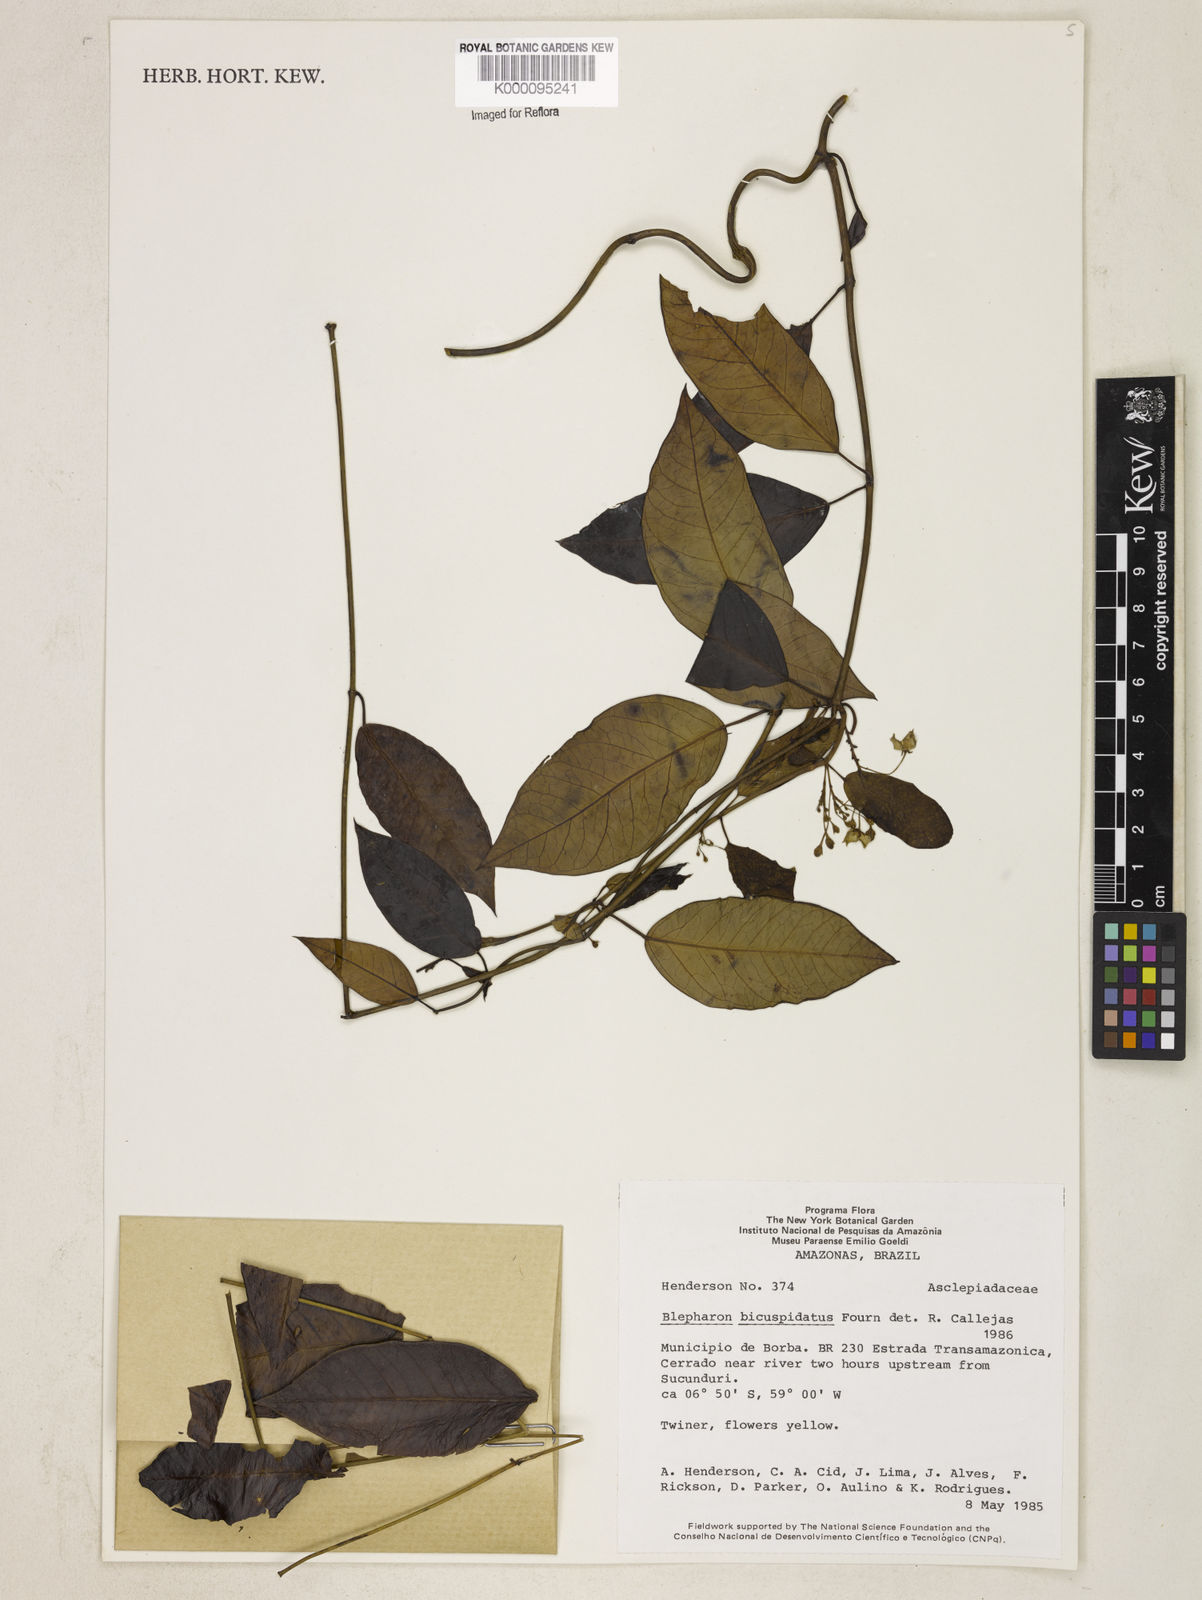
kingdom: Plantae
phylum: Tracheophyta
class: Magnoliopsida
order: Gentianales
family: Apocynaceae
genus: Blepharodon
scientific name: Blepharodon bicuspidatum
